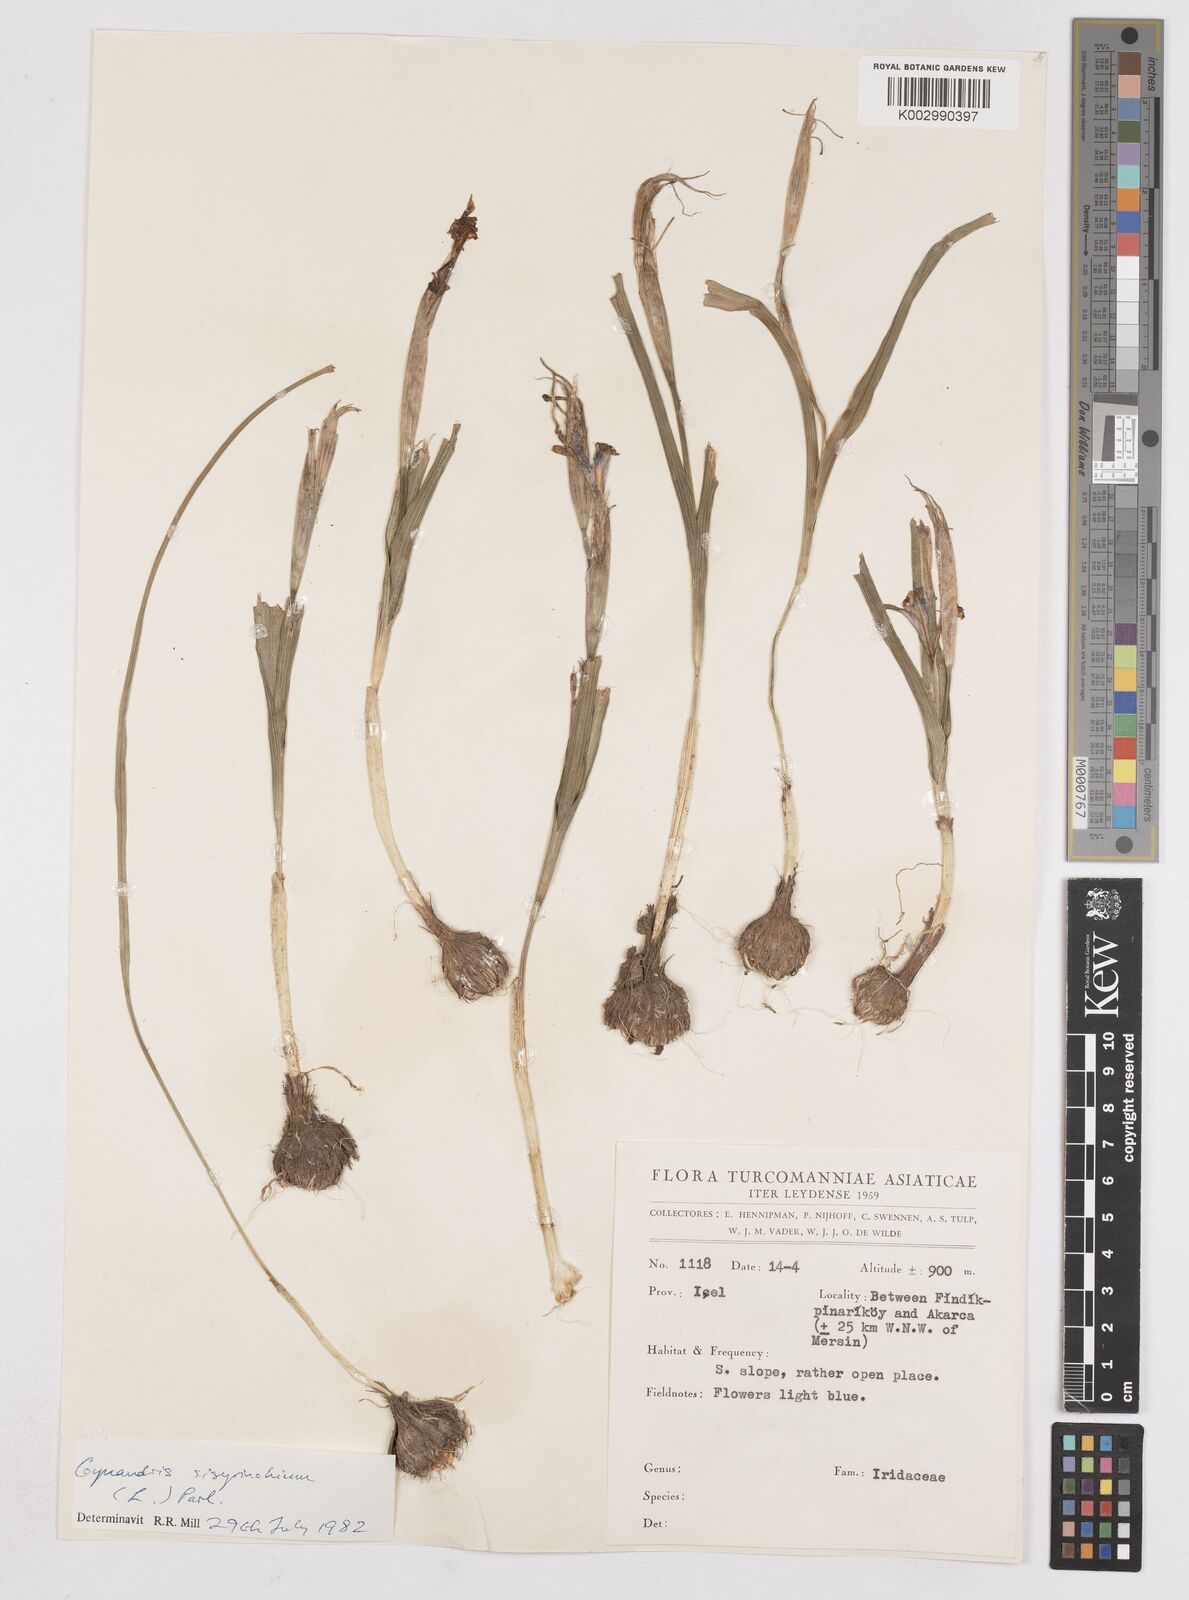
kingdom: Plantae
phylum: Tracheophyta
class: Liliopsida
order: Asparagales
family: Iridaceae
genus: Moraea
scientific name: Moraea sisyrinchium
